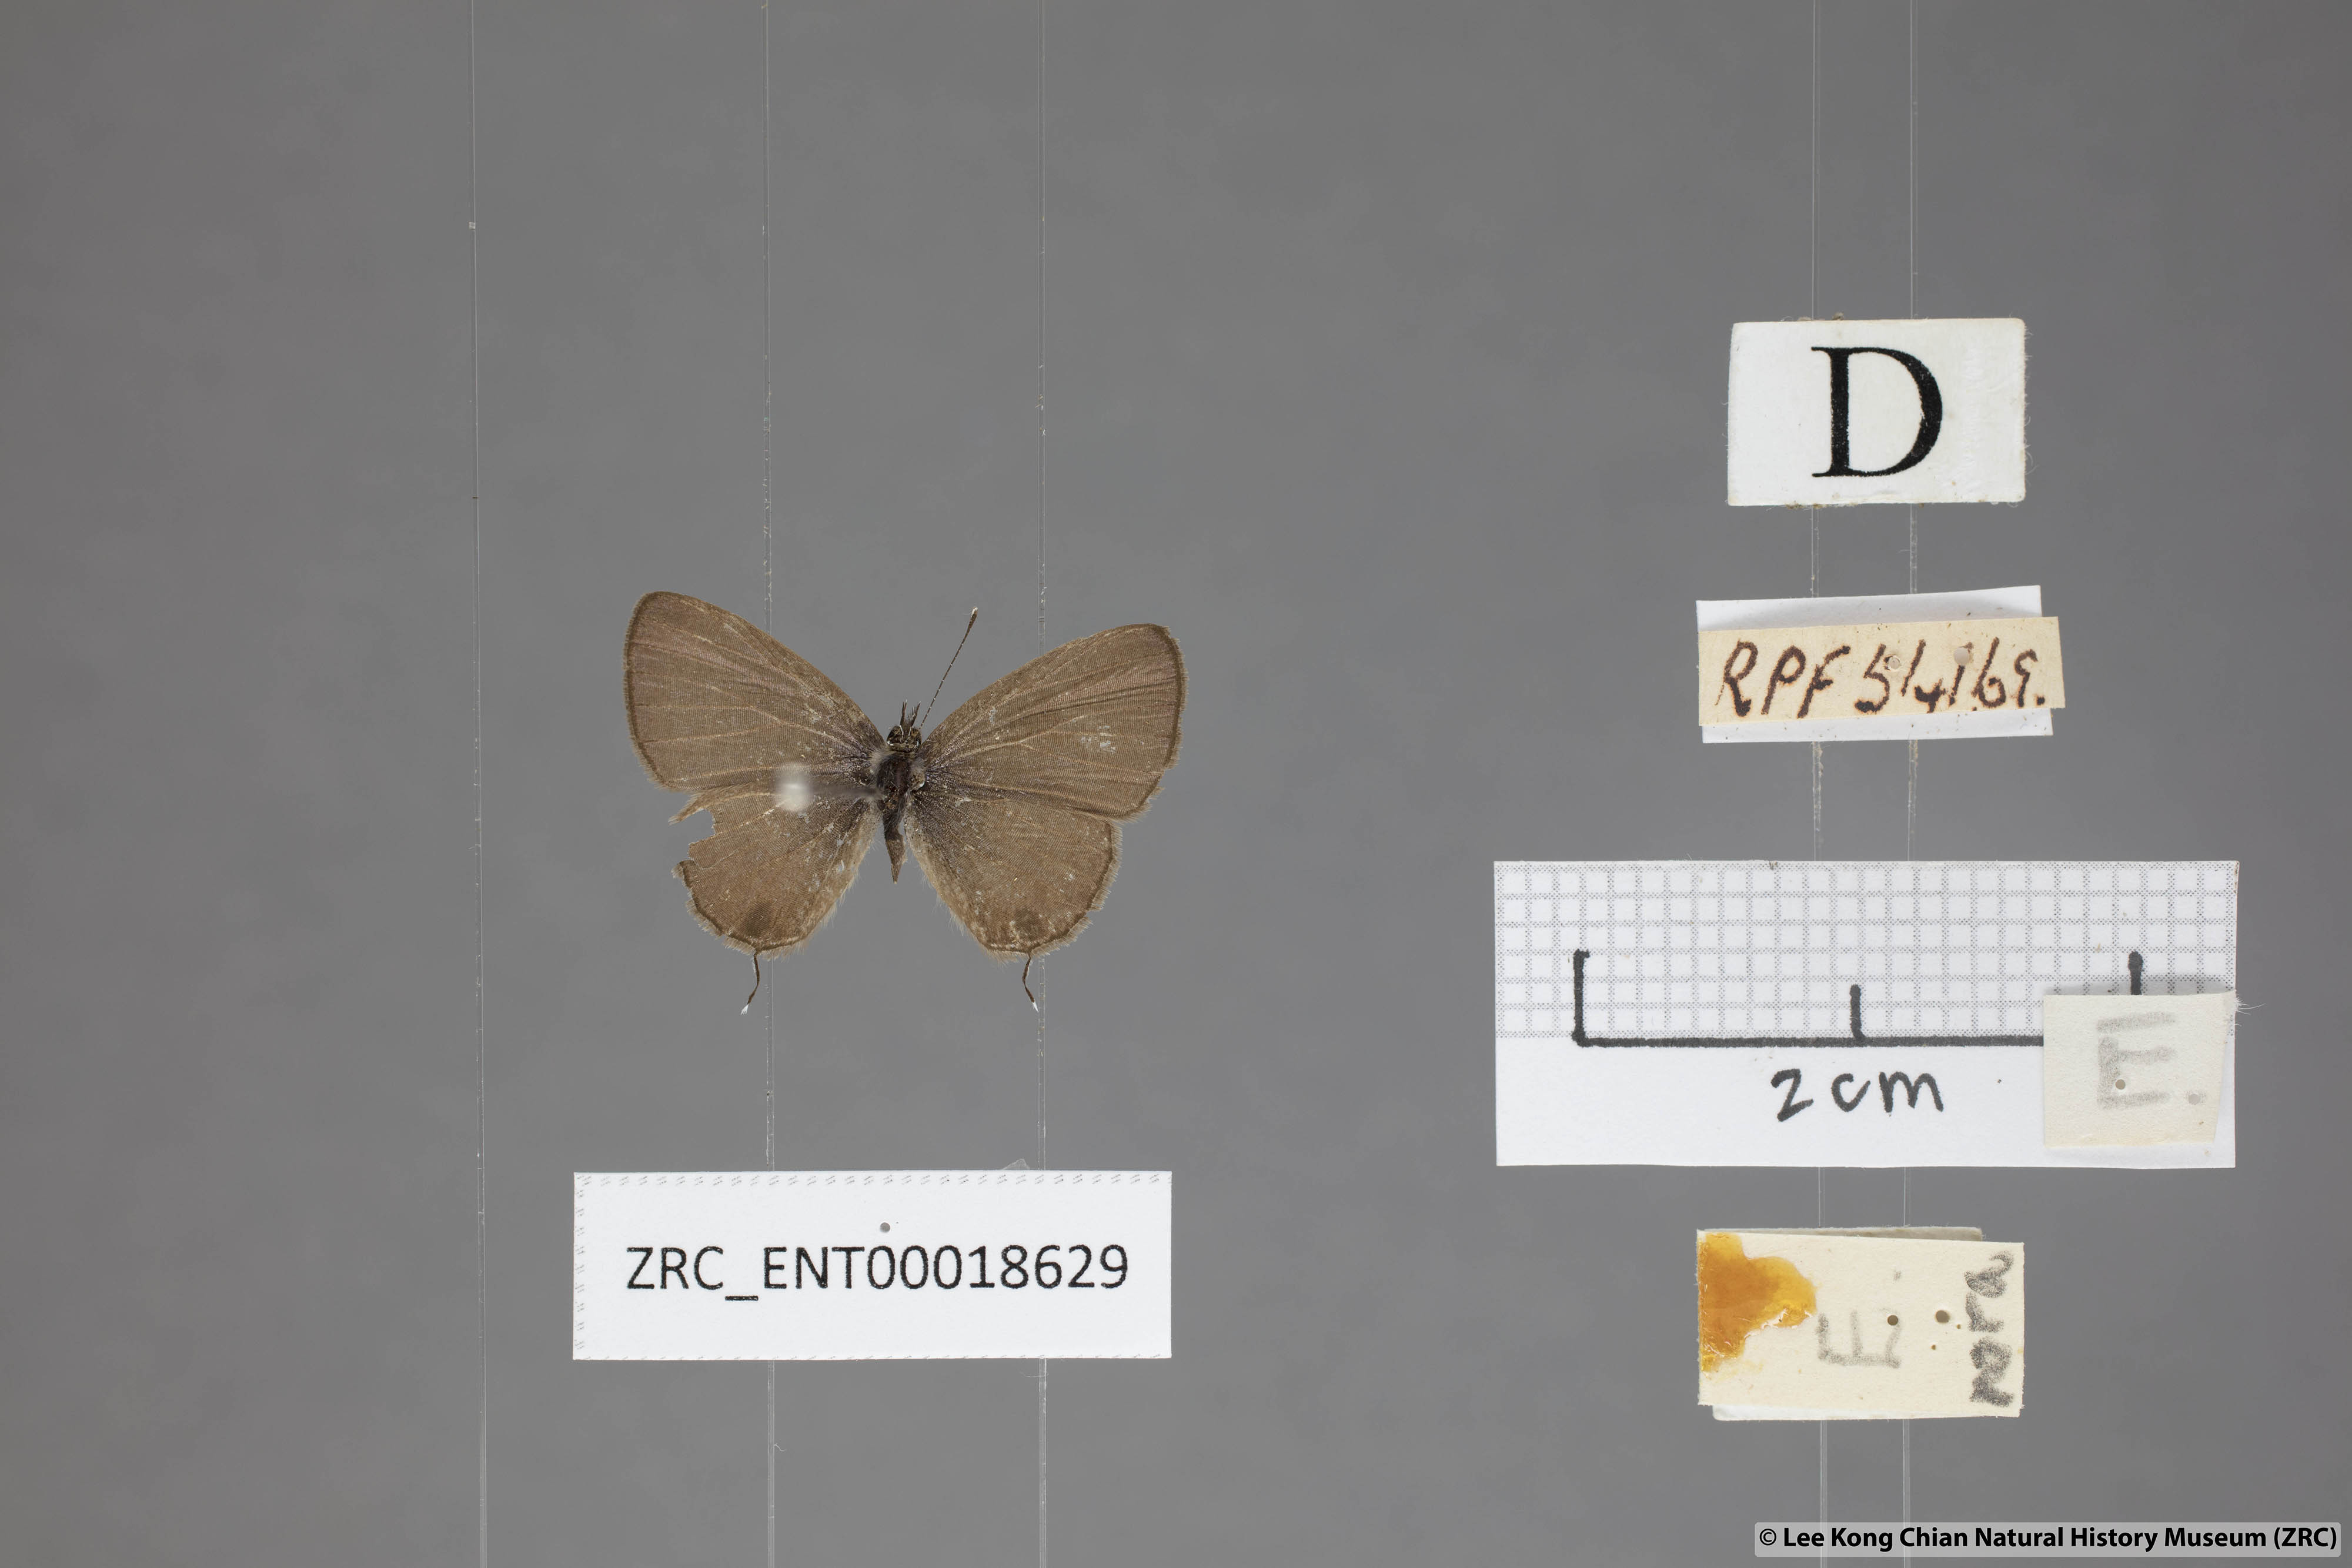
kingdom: Animalia
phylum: Arthropoda
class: Insecta
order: Lepidoptera
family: Lycaenidae
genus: Prosotas
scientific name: Prosotas nora
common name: Common line blue
